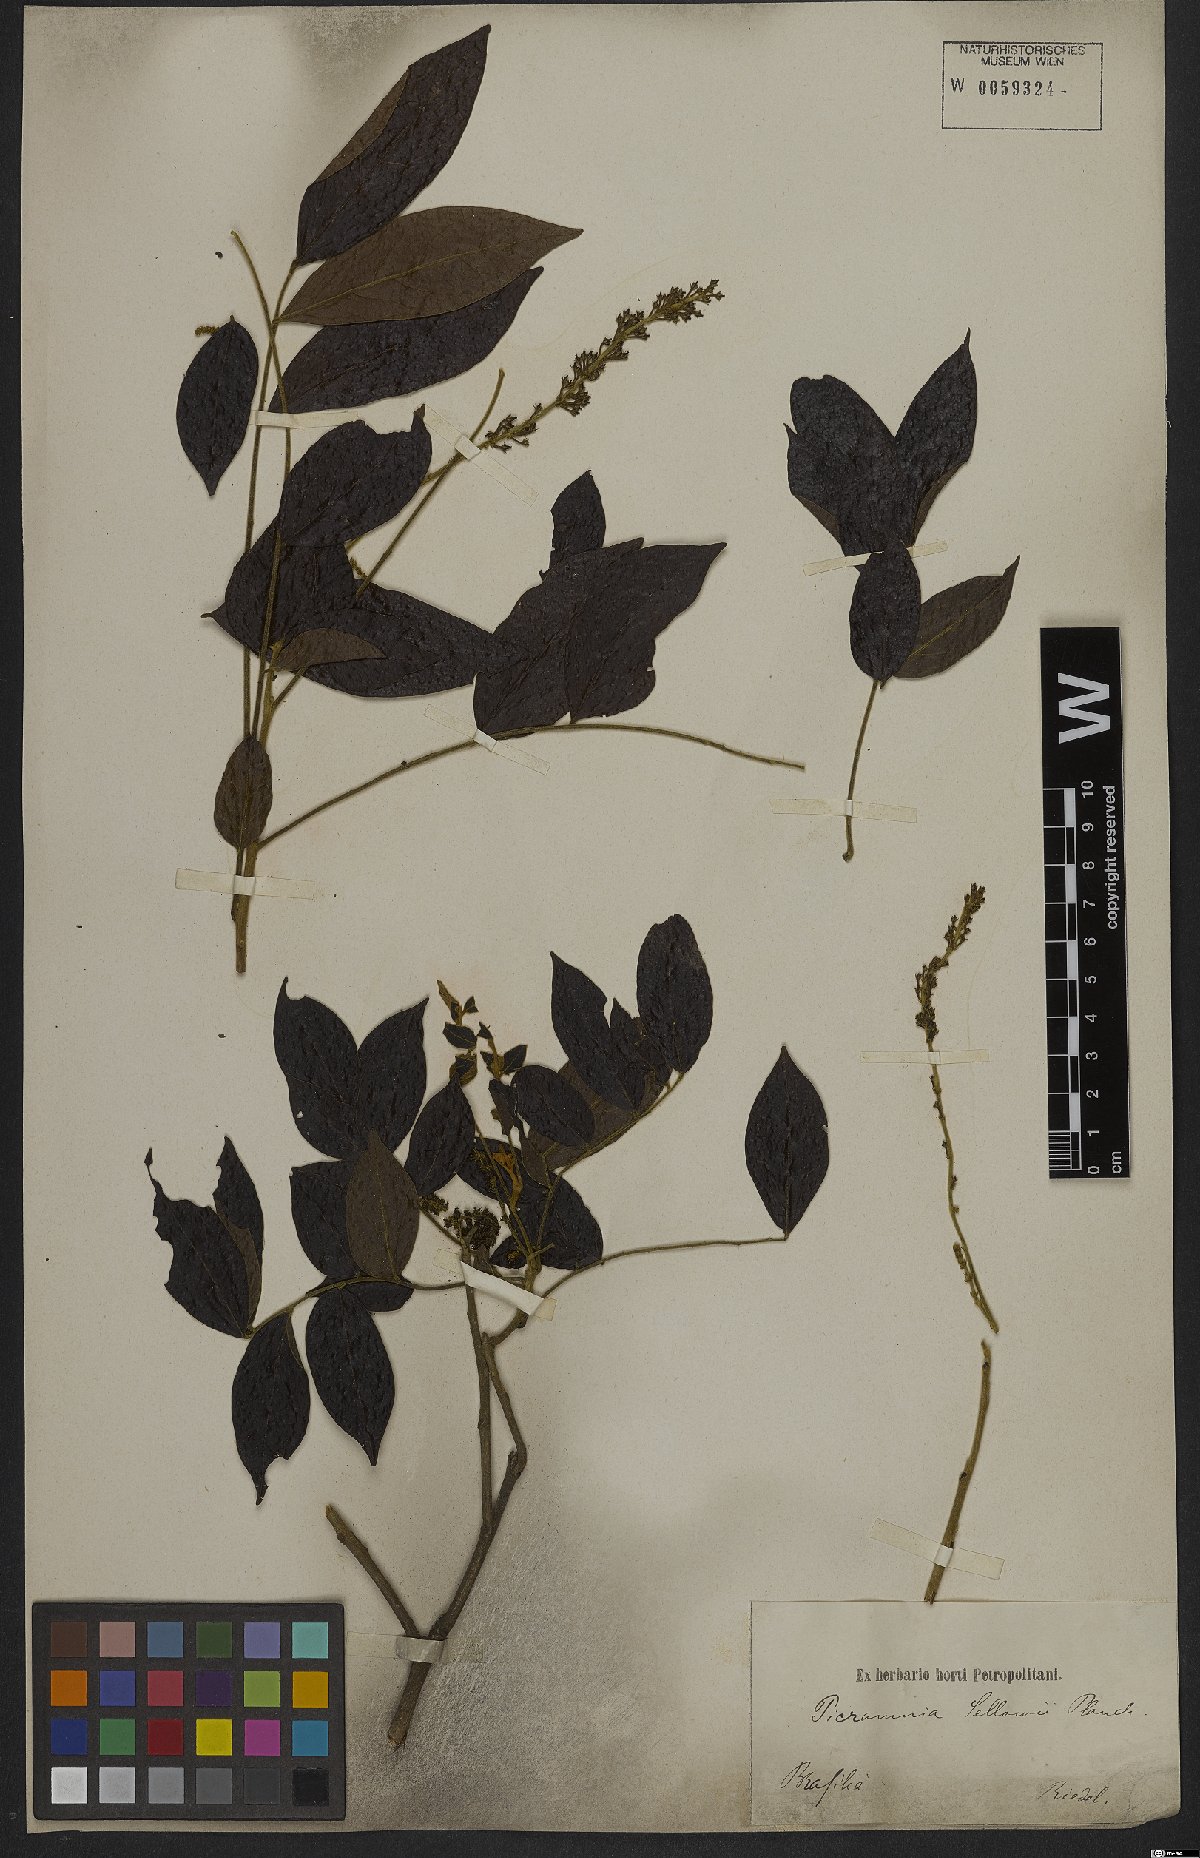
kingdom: Plantae
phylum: Tracheophyta
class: Magnoliopsida
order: Picramniales
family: Picramniaceae
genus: Picramnia
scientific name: Picramnia sellowii
